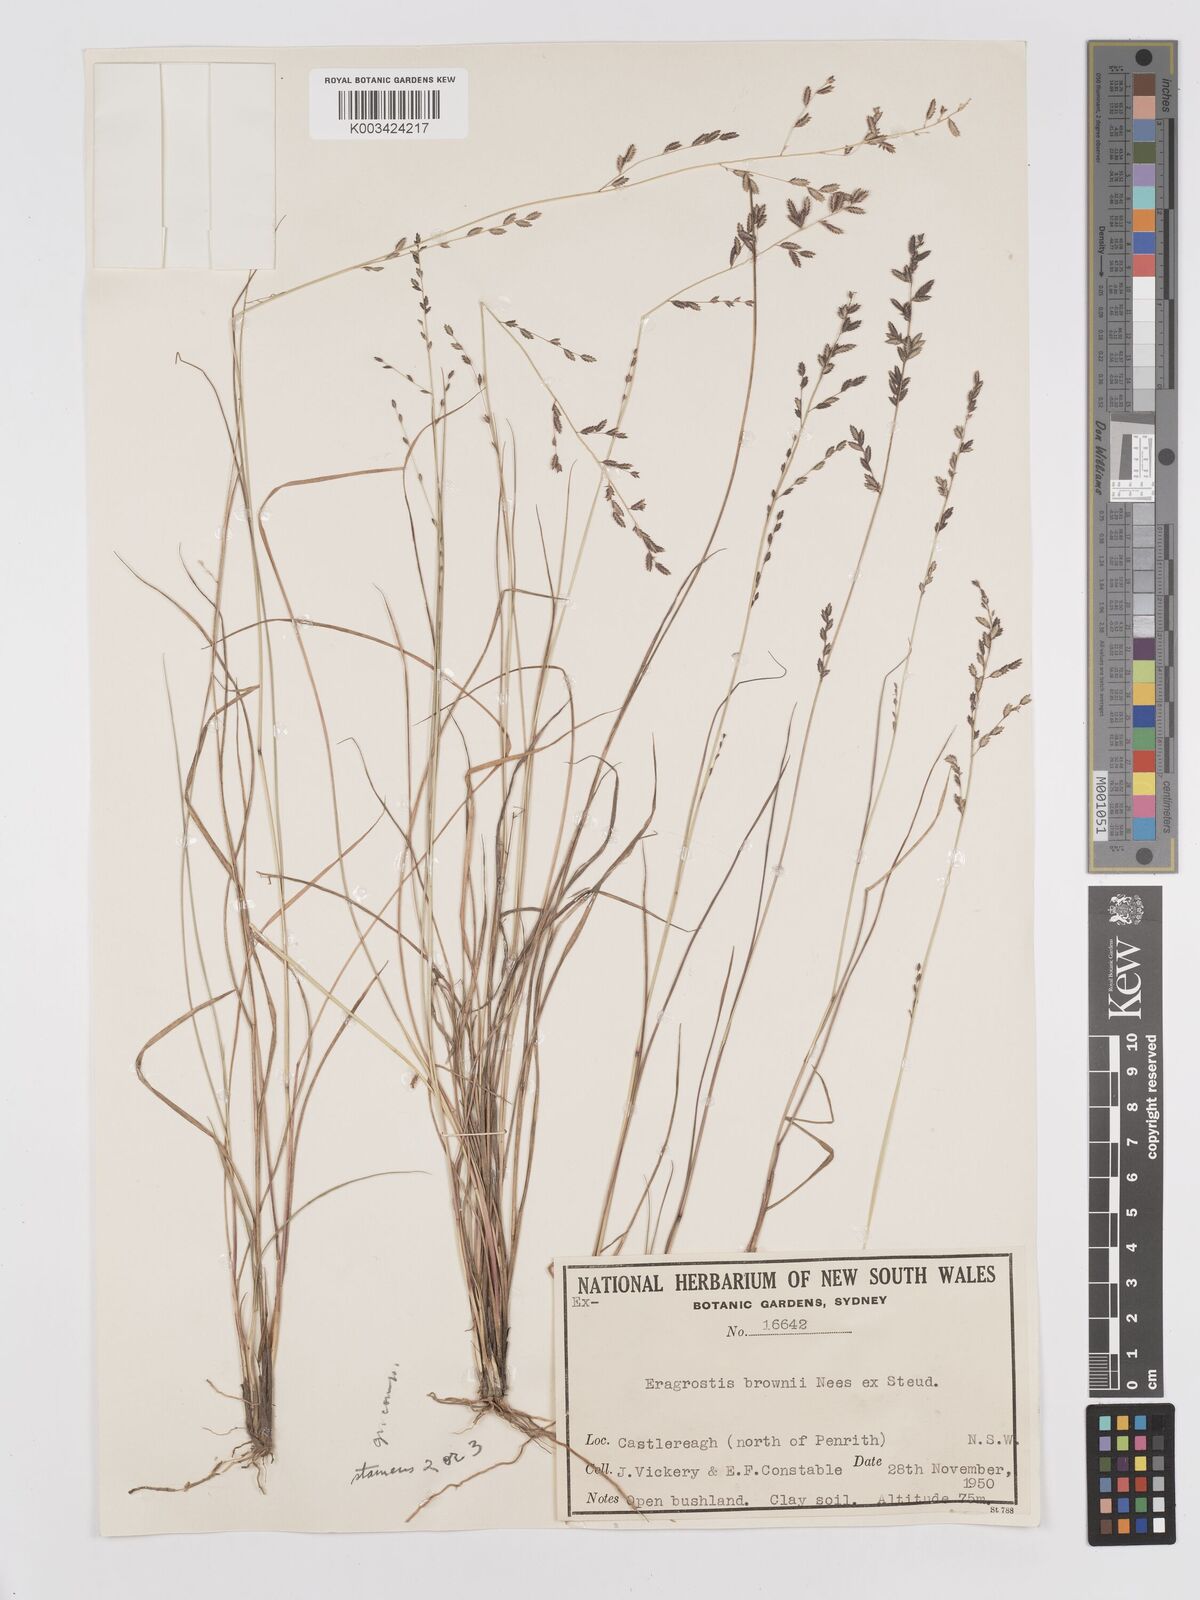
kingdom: Plantae
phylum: Tracheophyta
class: Liliopsida
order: Poales
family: Poaceae
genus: Eragrostis
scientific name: Eragrostis brownii
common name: Lovegrass
